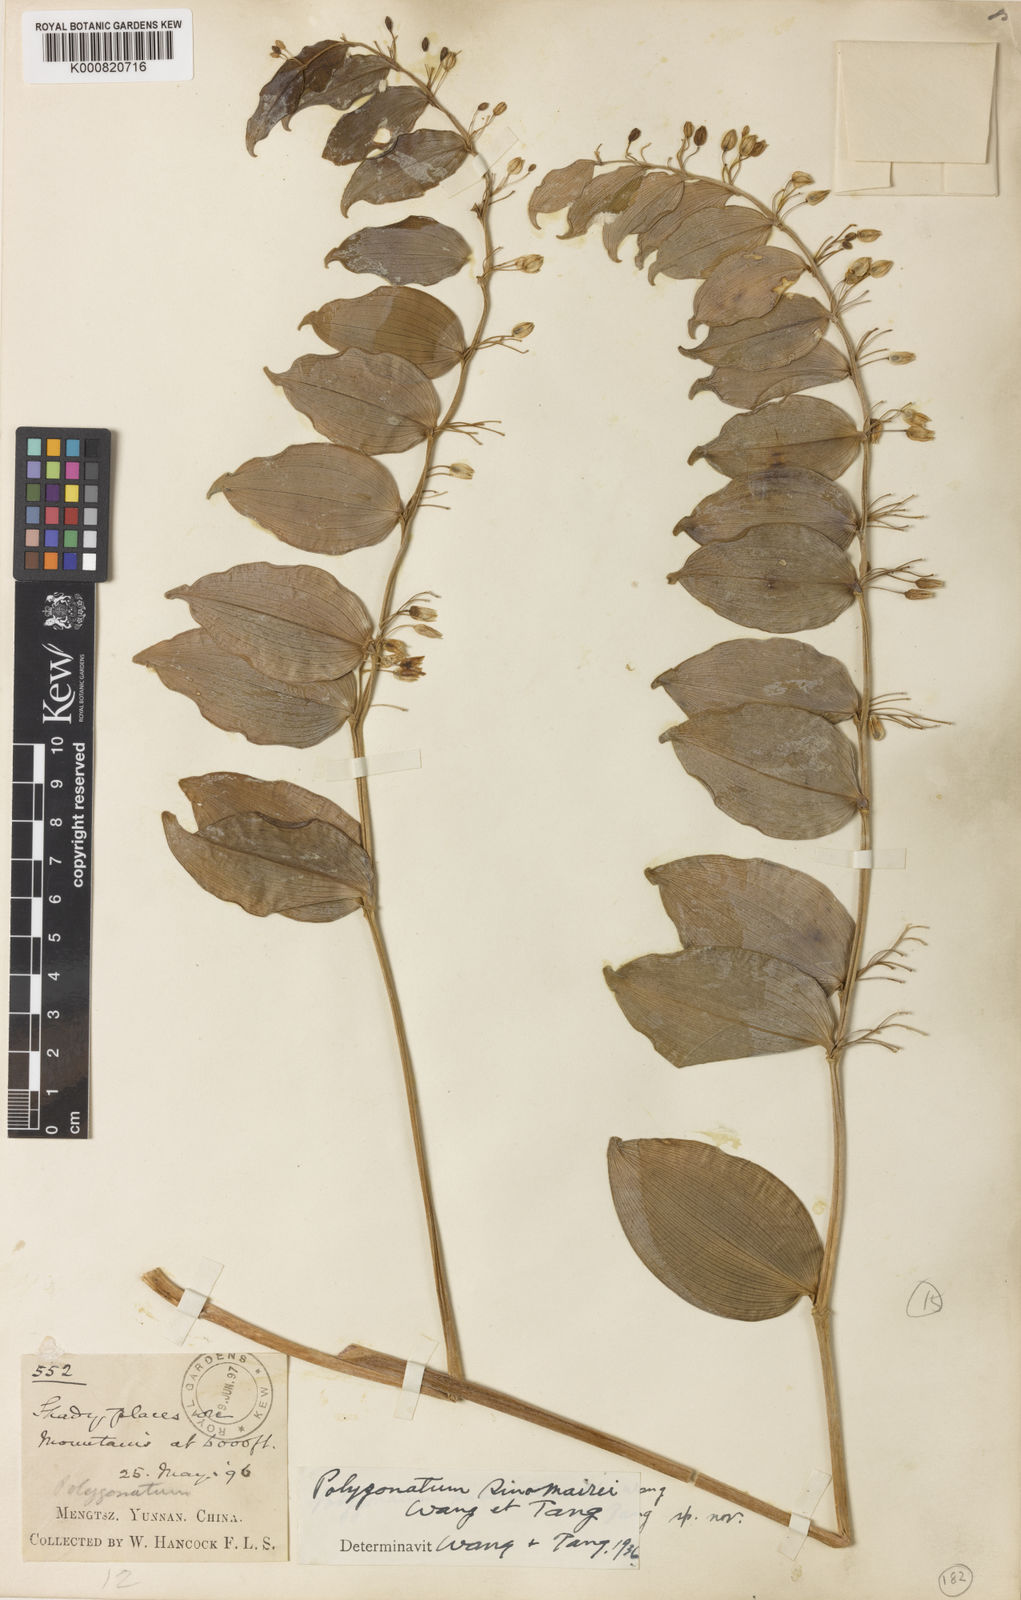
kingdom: Plantae
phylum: Tracheophyta
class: Liliopsida
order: Asparagales
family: Asparagaceae
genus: Polygonatum
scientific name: Polygonatum punctatum
